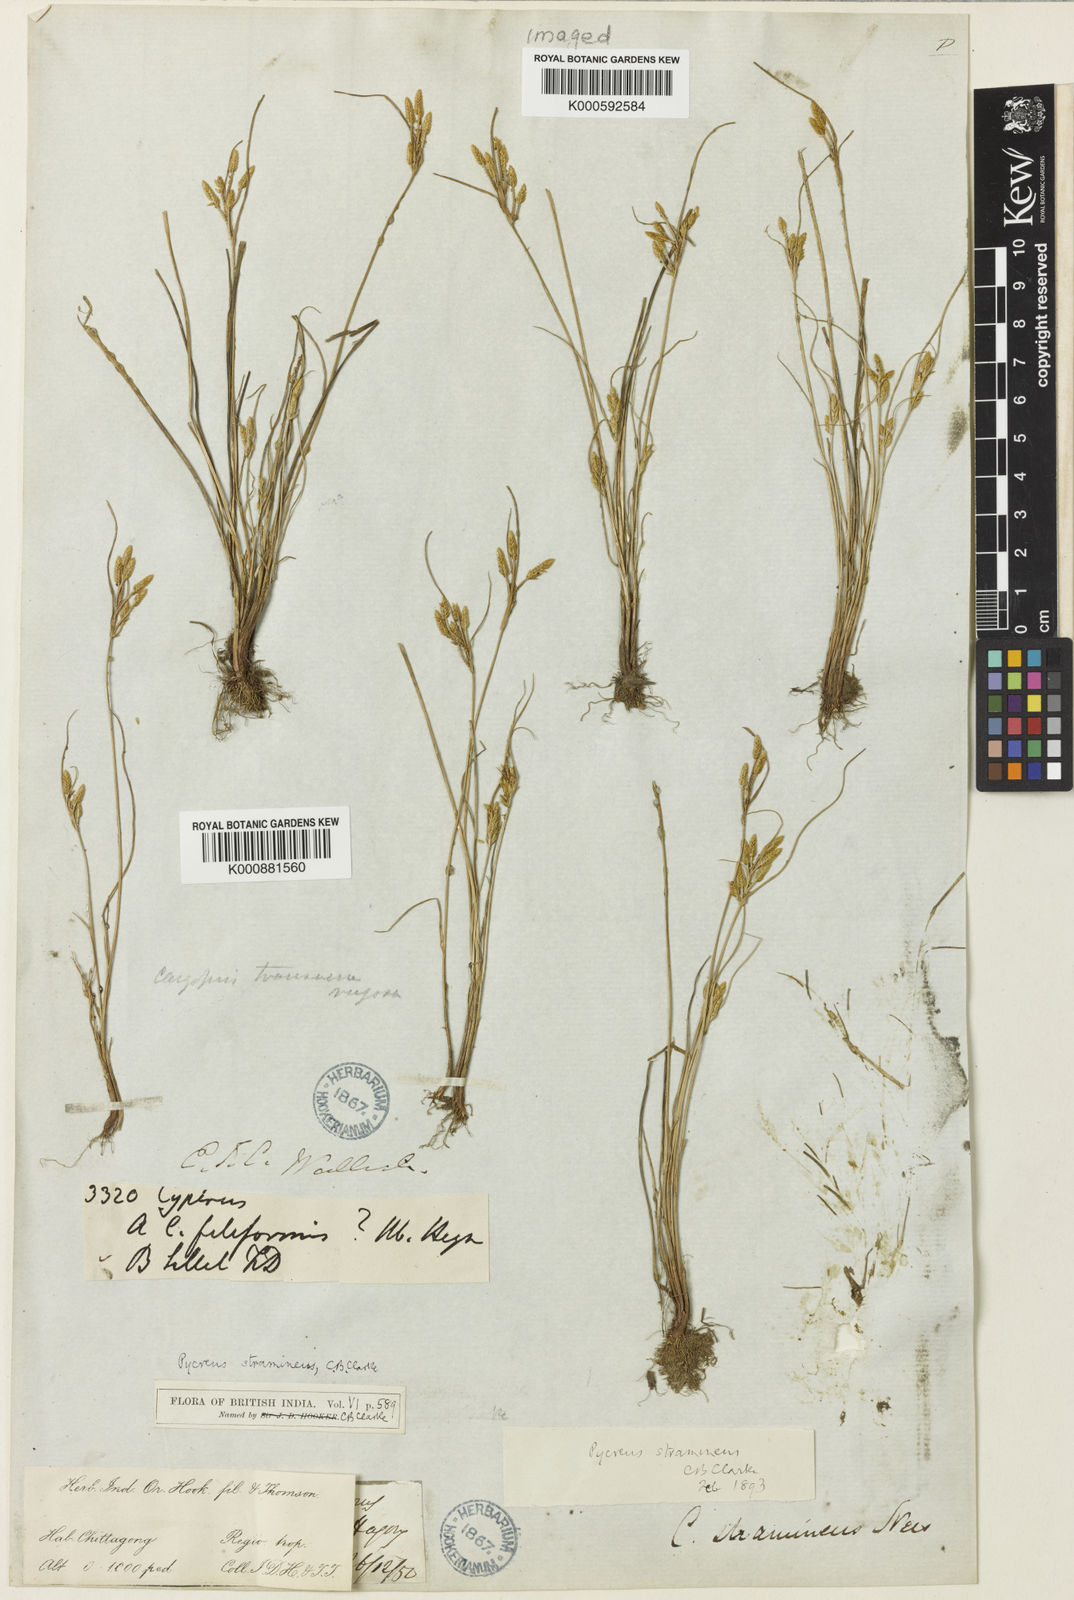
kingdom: Plantae
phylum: Tracheophyta
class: Liliopsida
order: Poales
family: Cyperaceae
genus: Cyperus
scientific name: Cyperus substramineus
